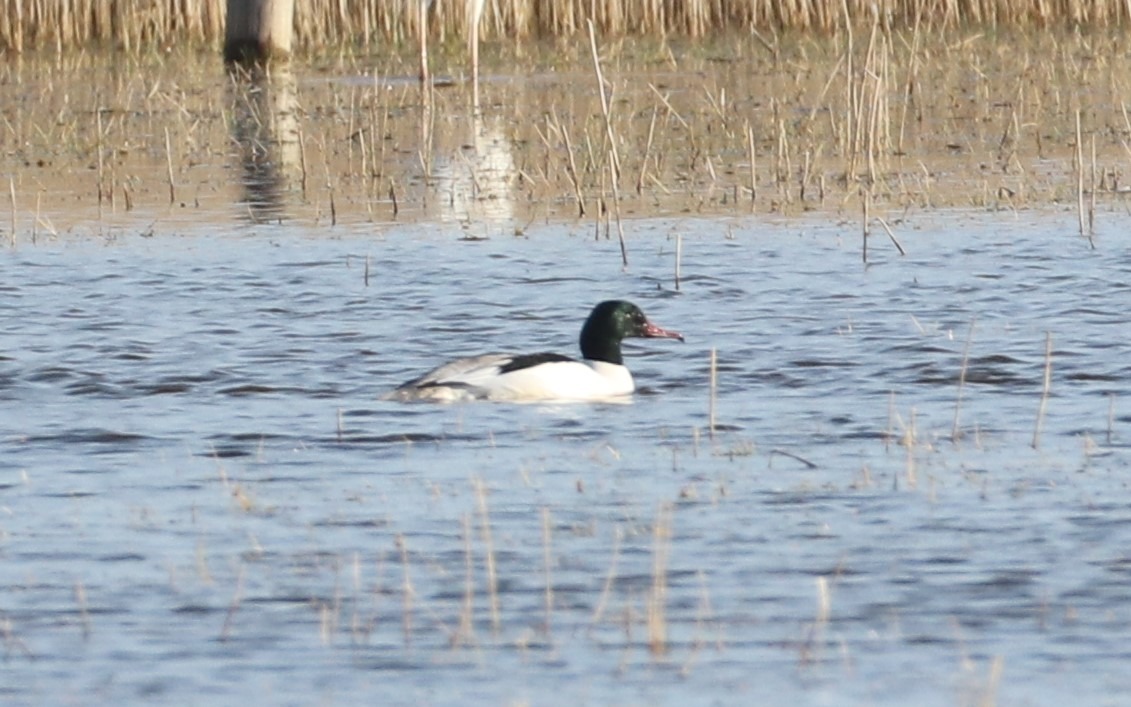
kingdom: Animalia
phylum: Chordata
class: Aves
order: Anseriformes
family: Anatidae
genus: Mergus
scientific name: Mergus merganser
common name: Stor skallesluger
